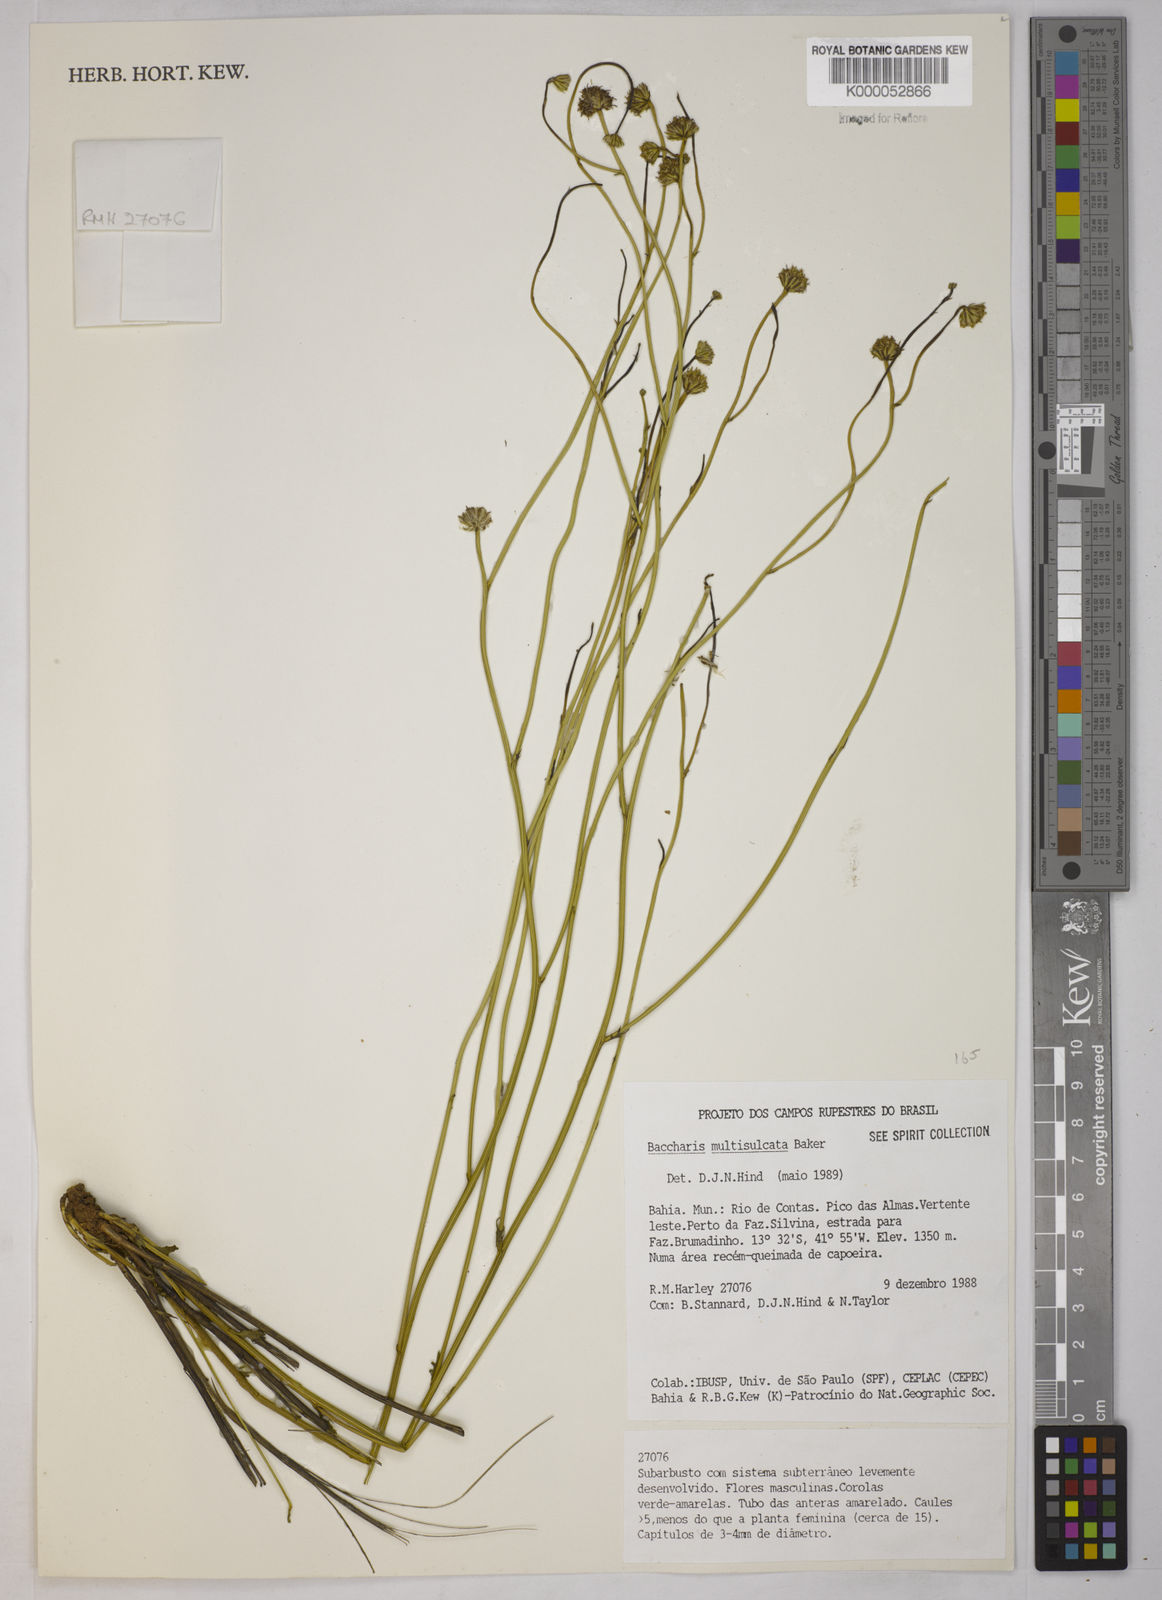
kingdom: Plantae
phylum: Tracheophyta
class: Magnoliopsida
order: Asterales
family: Asteraceae
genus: Baccharis
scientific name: Baccharis orbignyana
